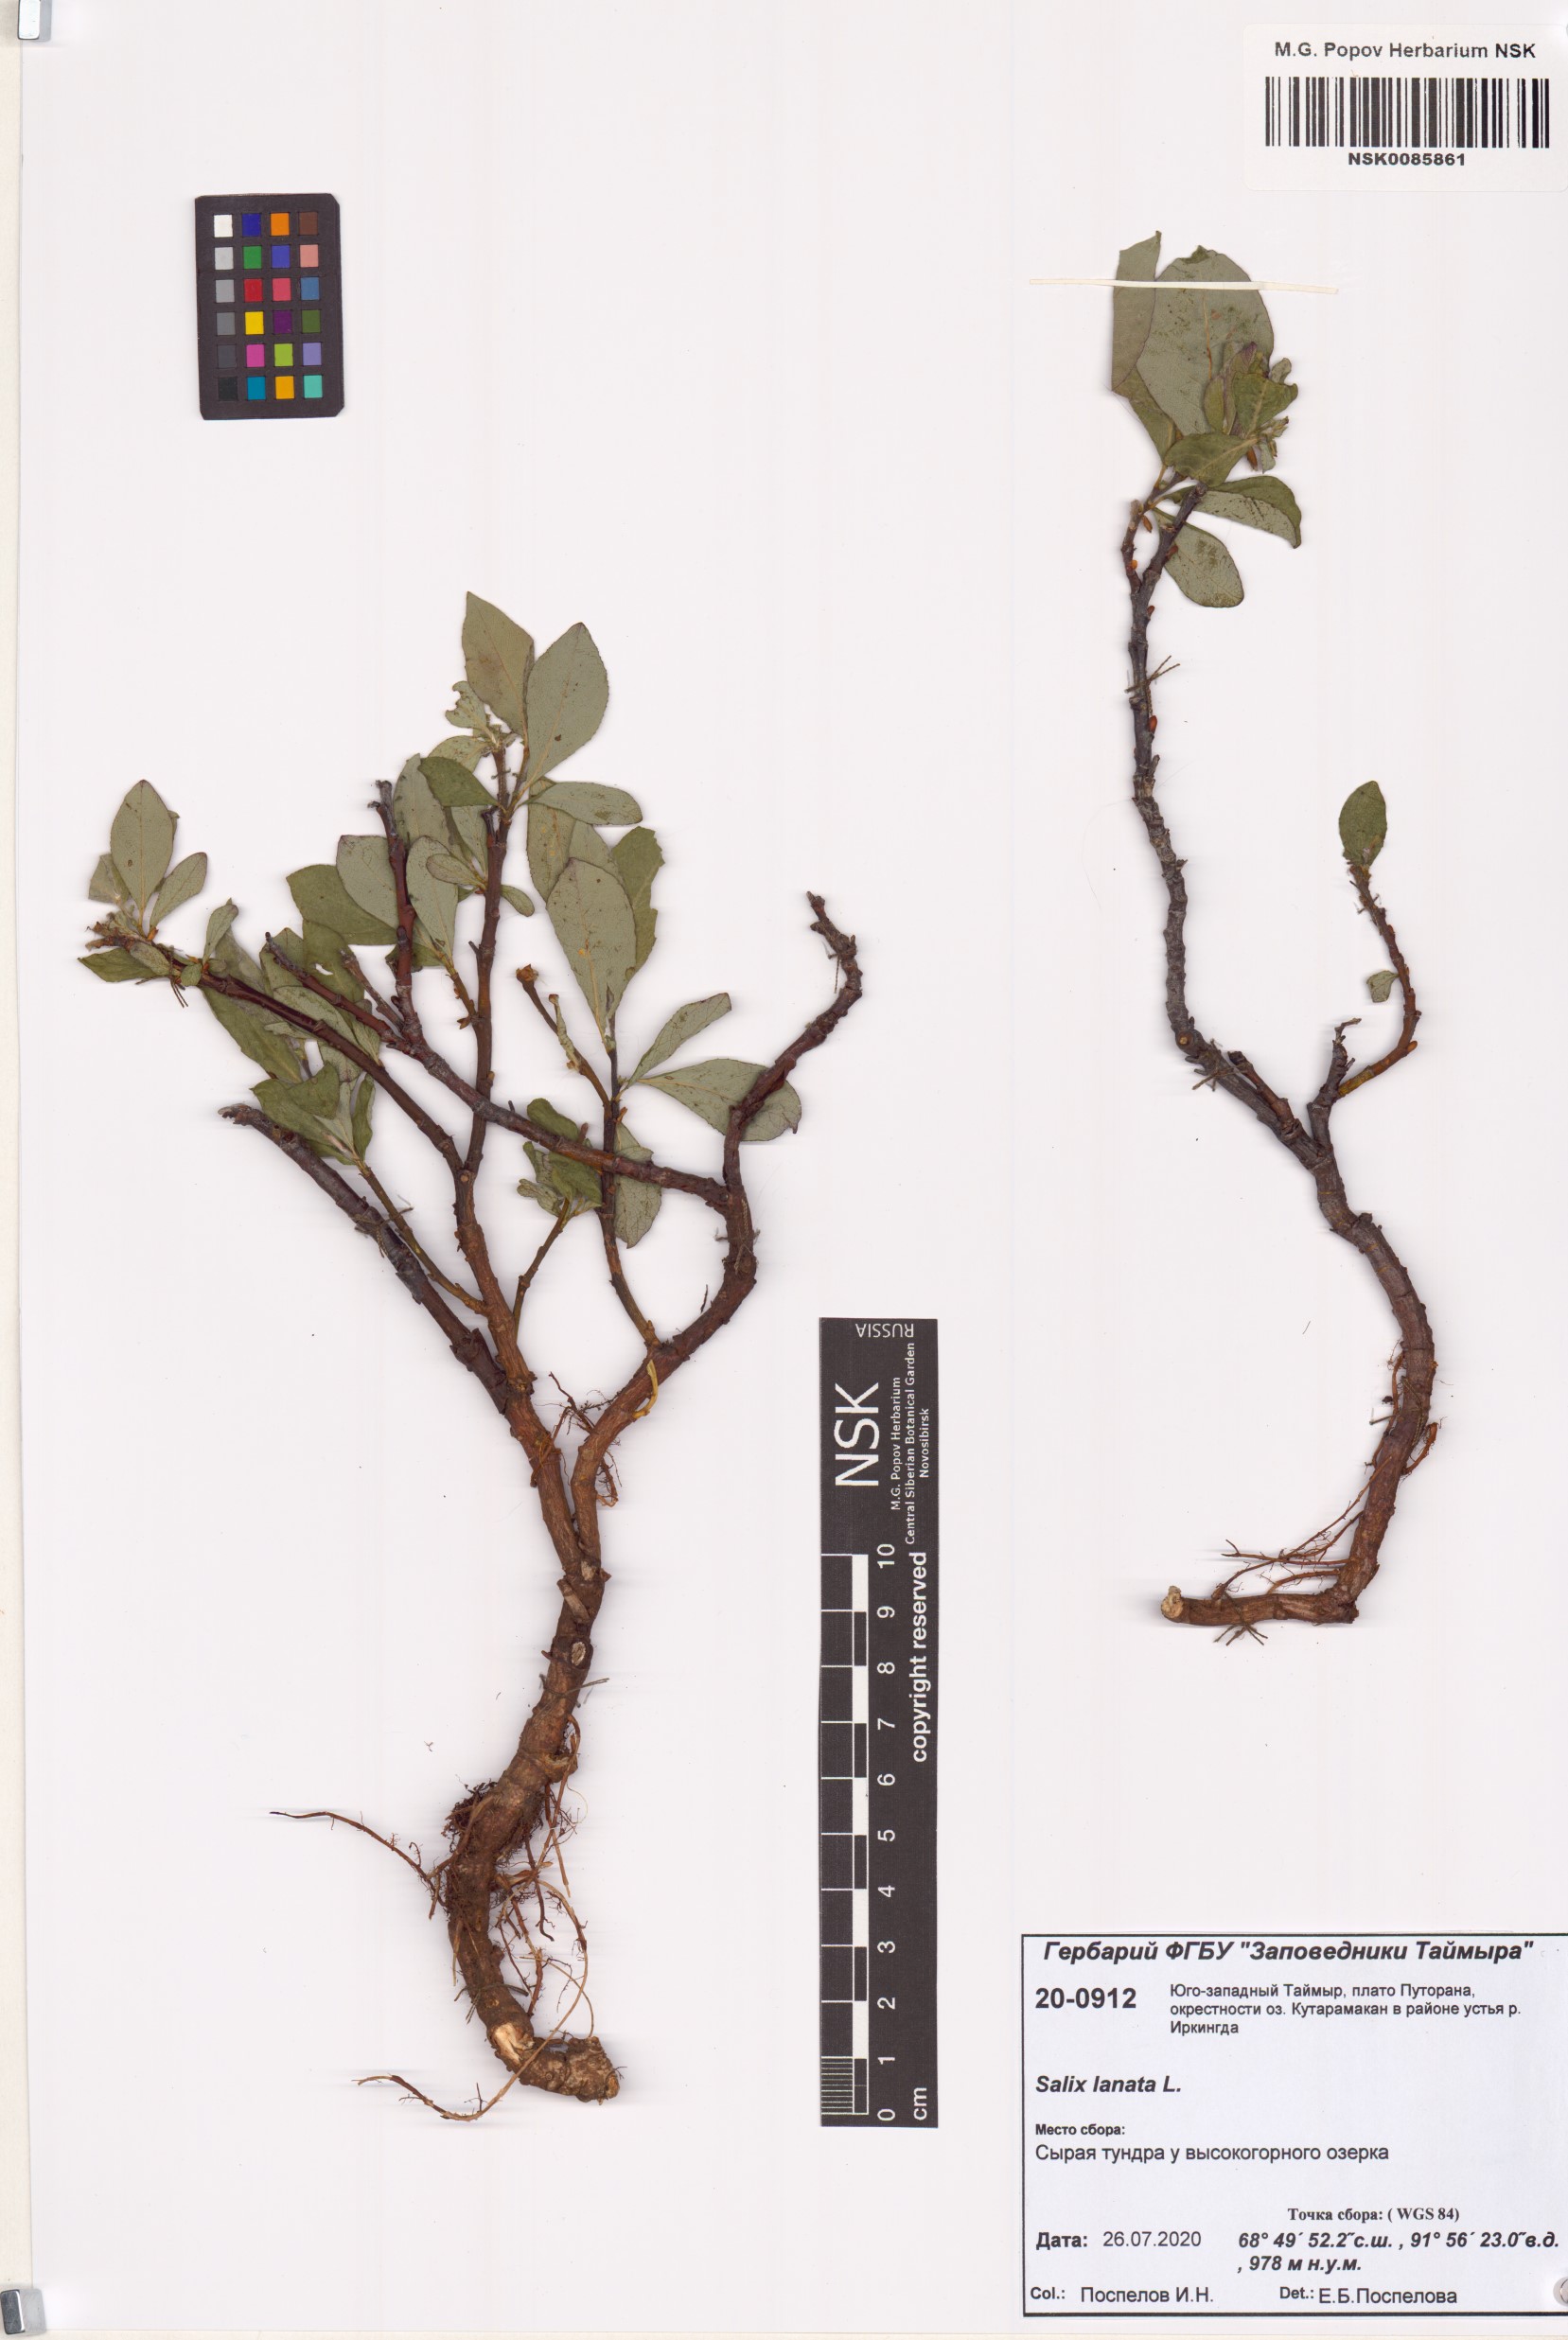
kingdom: Plantae
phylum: Tracheophyta
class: Magnoliopsida
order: Malpighiales
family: Salicaceae
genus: Salix
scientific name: Salix lanata
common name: Woolly willow
